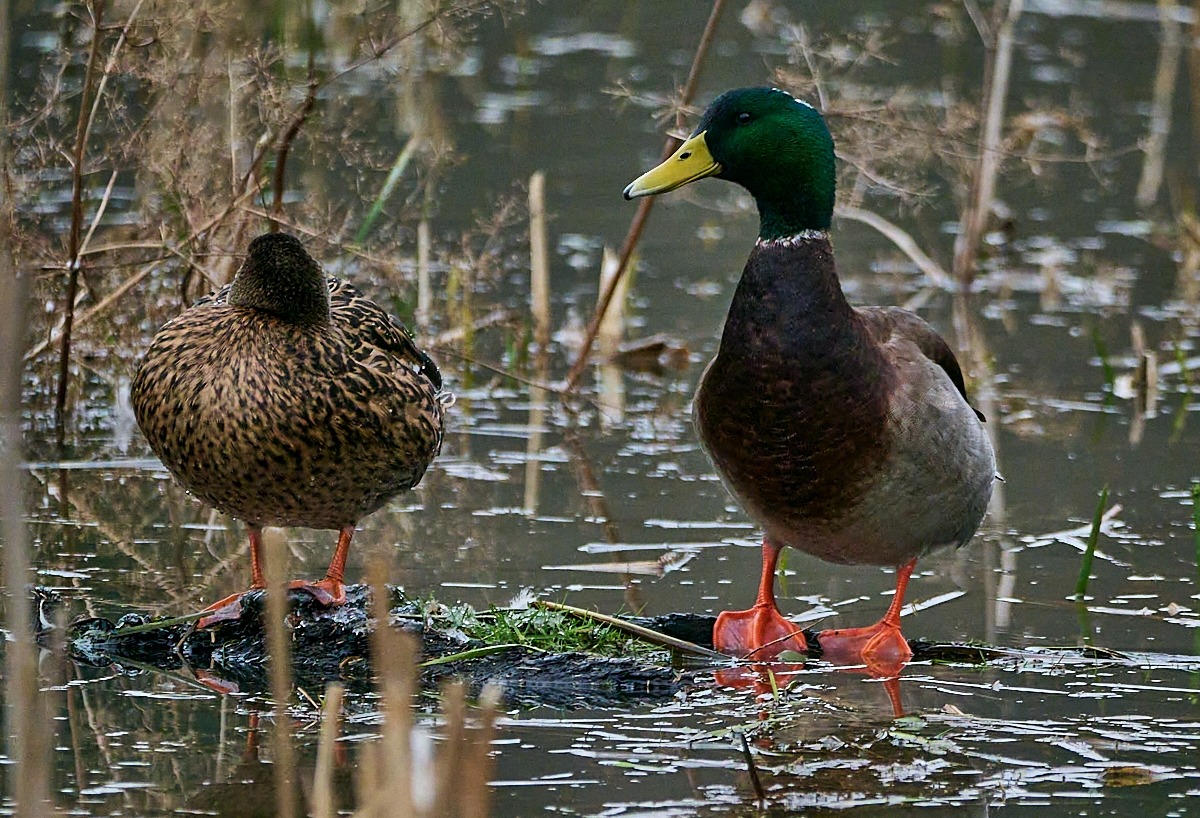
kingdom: Animalia
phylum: Chordata
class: Aves
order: Anseriformes
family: Anatidae
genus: Anas
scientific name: Anas platyrhynchos
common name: Gråand
